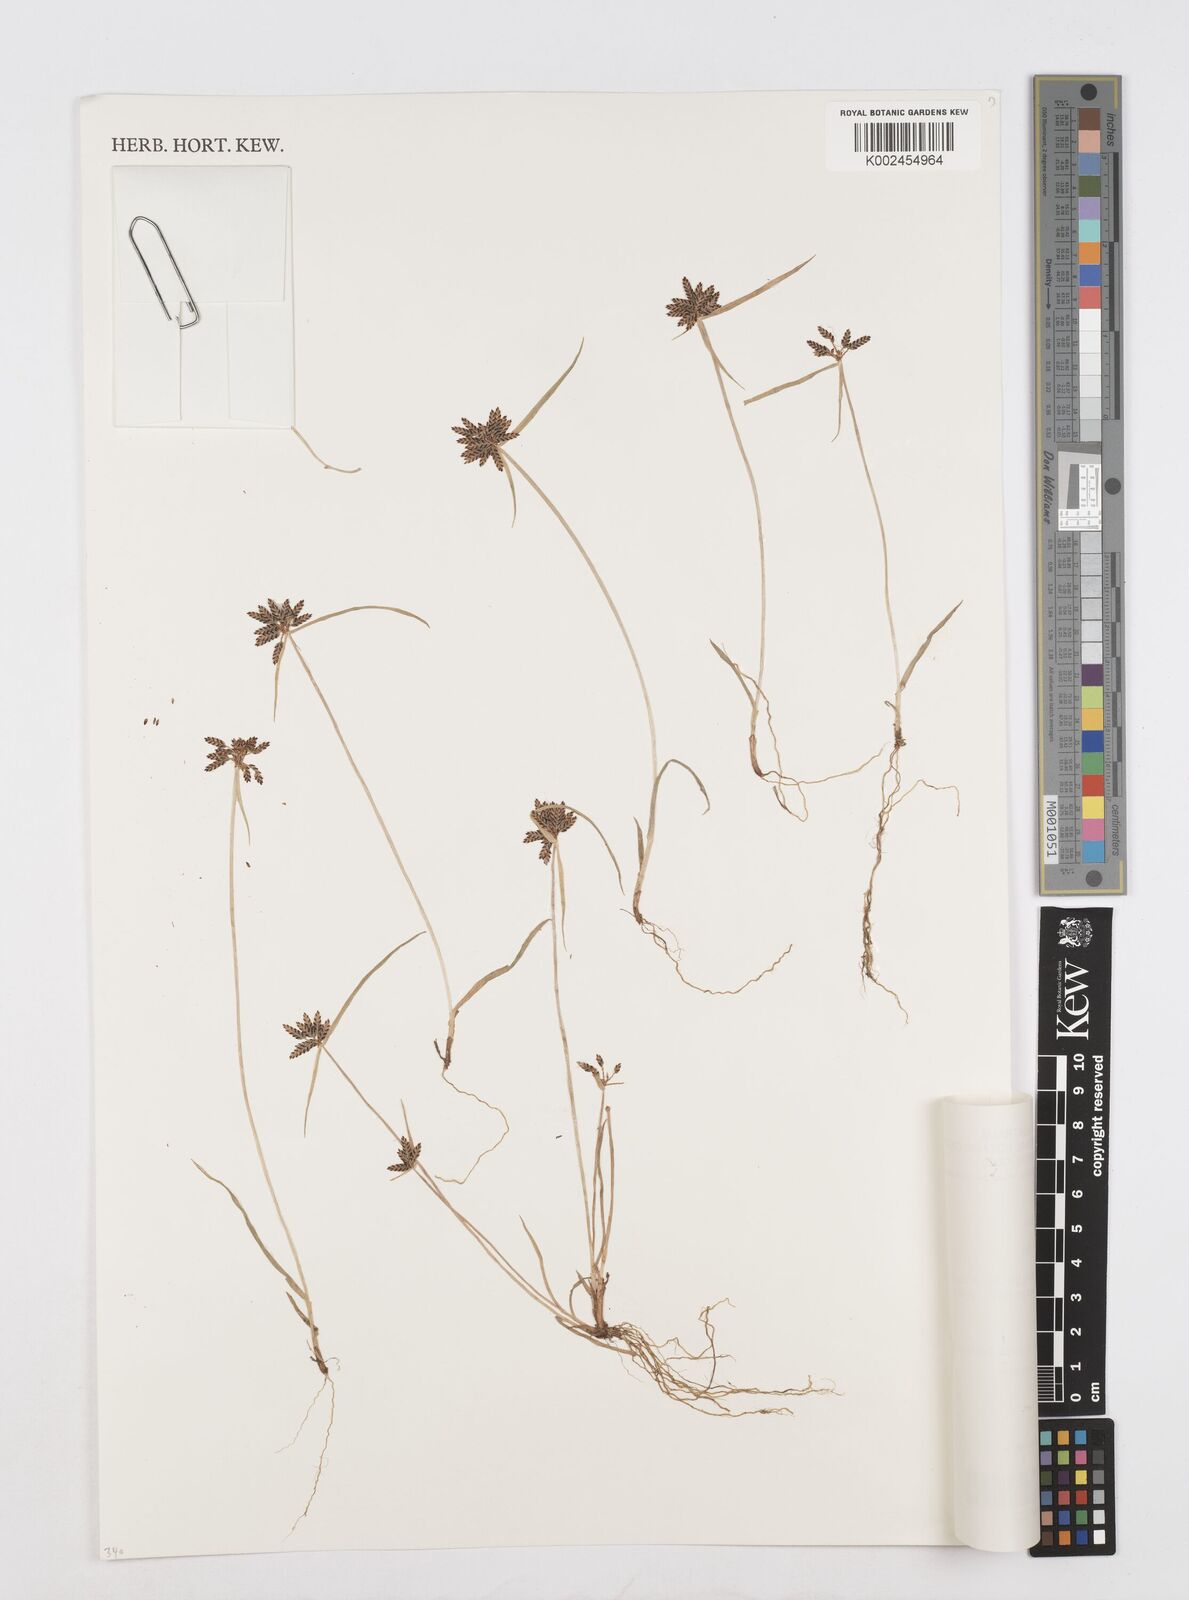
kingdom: Plantae
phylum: Tracheophyta
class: Liliopsida
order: Poales
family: Cyperaceae
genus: Cyperus
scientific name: Cyperus sanguinolentus
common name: Purpleglume flatsedge
